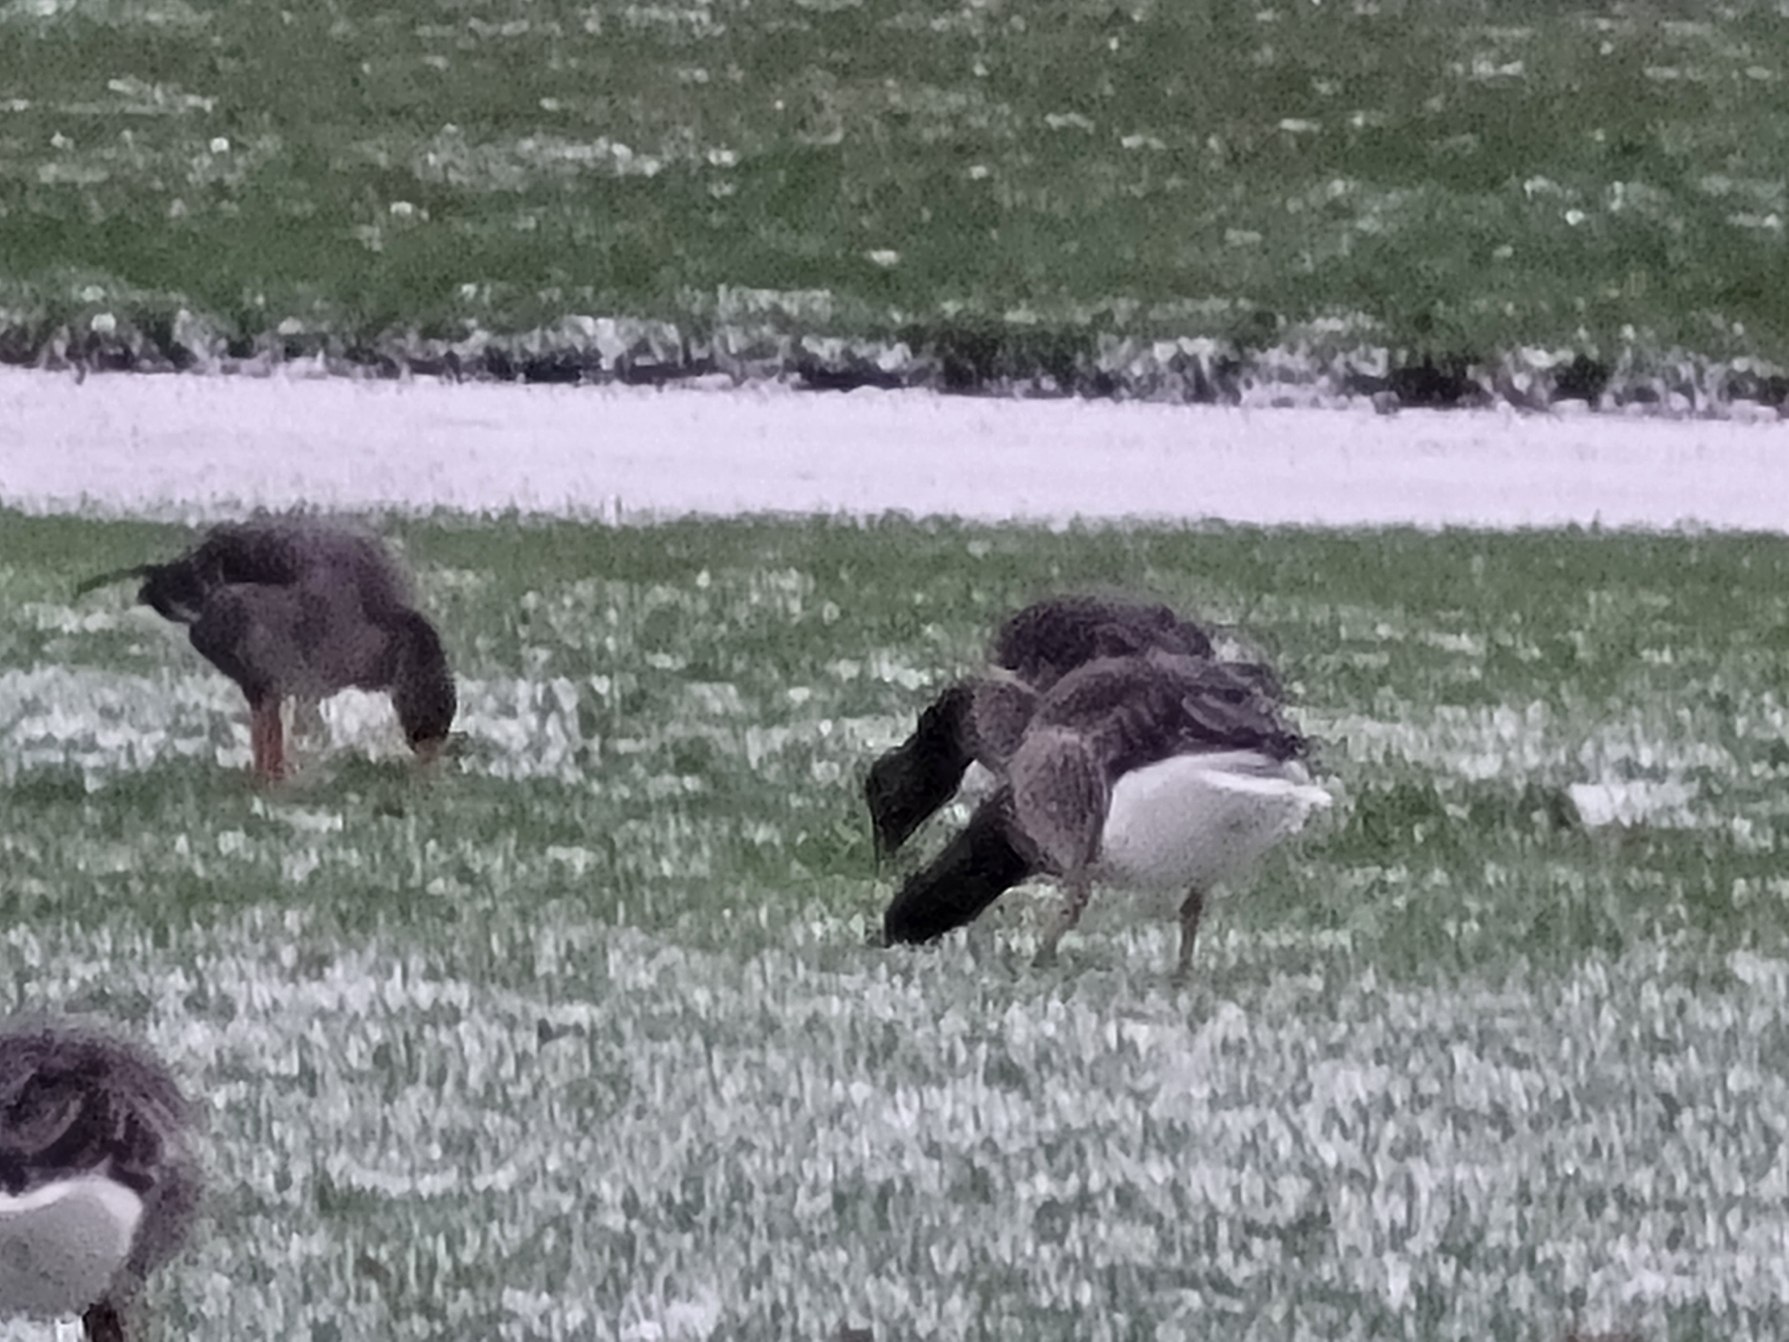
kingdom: Animalia
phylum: Chordata
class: Aves
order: Anseriformes
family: Anatidae
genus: Anser
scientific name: Anser anser
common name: Grågås
